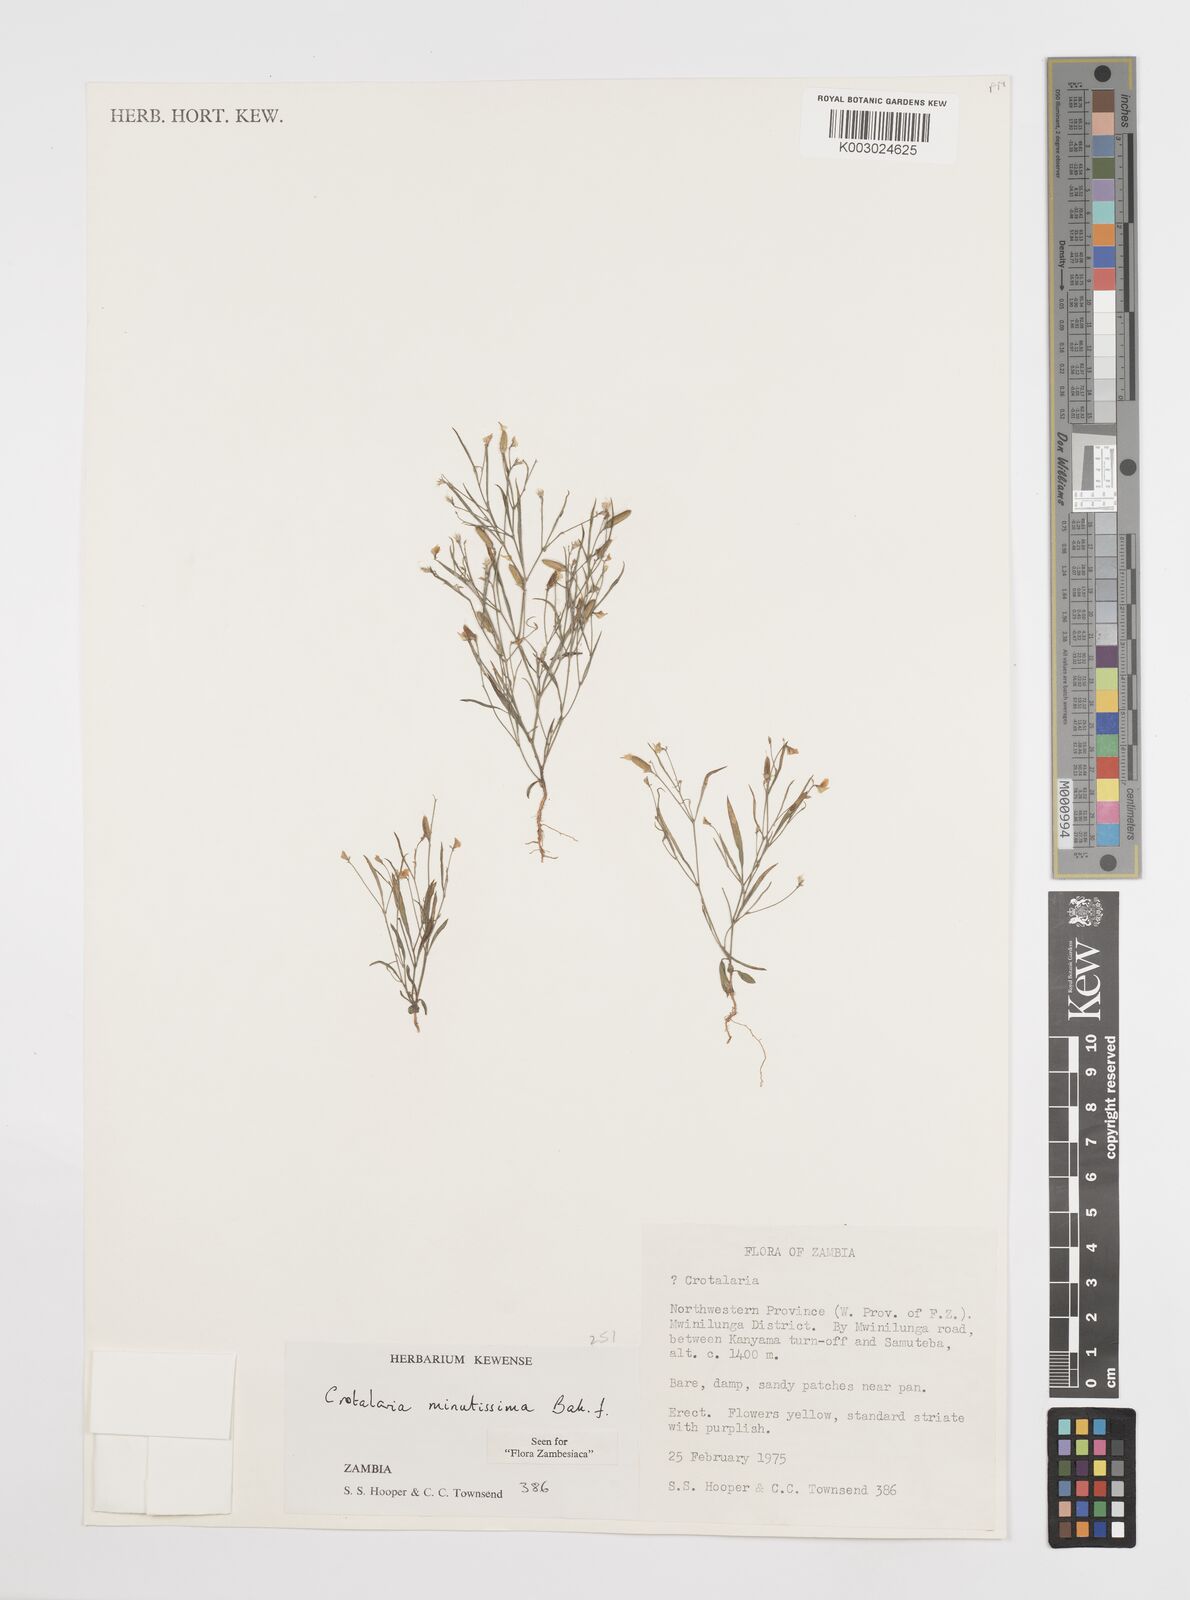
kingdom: Plantae
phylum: Tracheophyta
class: Magnoliopsida
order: Fabales
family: Fabaceae
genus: Crotalaria
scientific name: Crotalaria minutissima
